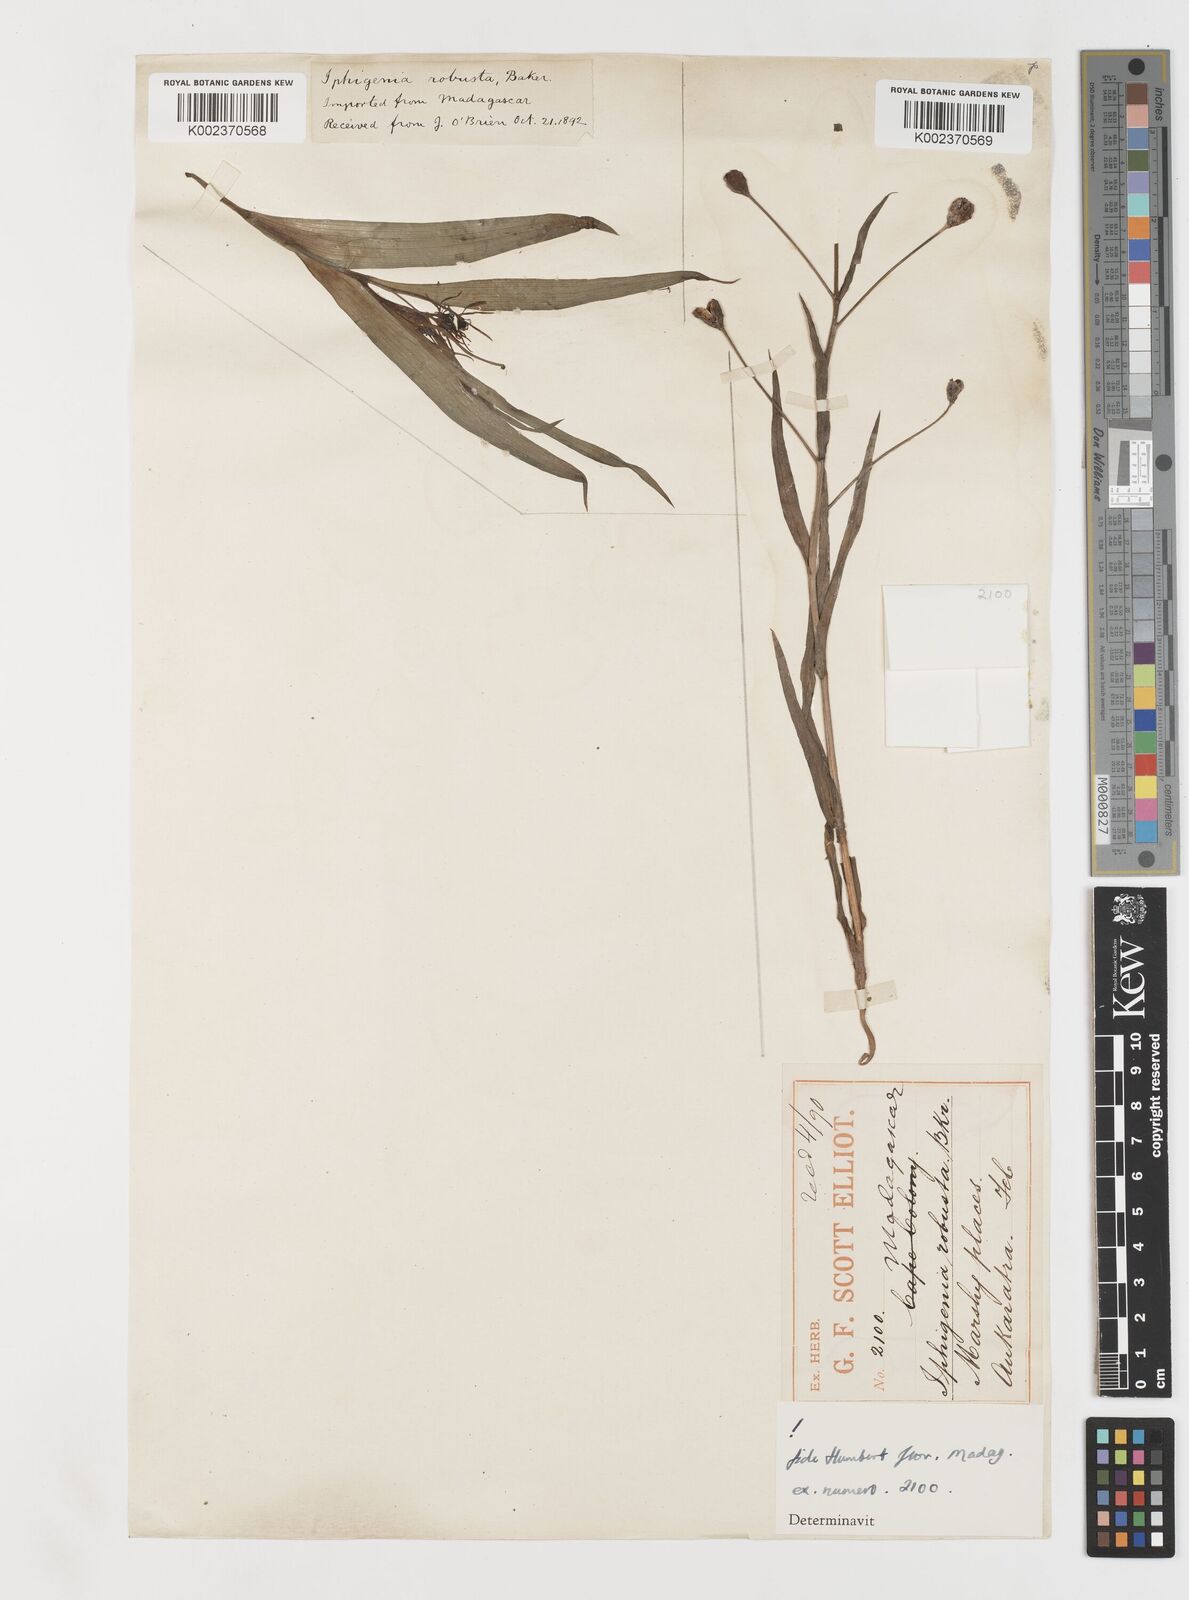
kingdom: Plantae
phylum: Tracheophyta
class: Liliopsida
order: Liliales
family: Colchicaceae
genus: Iphigenia
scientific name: Iphigenia robusta
